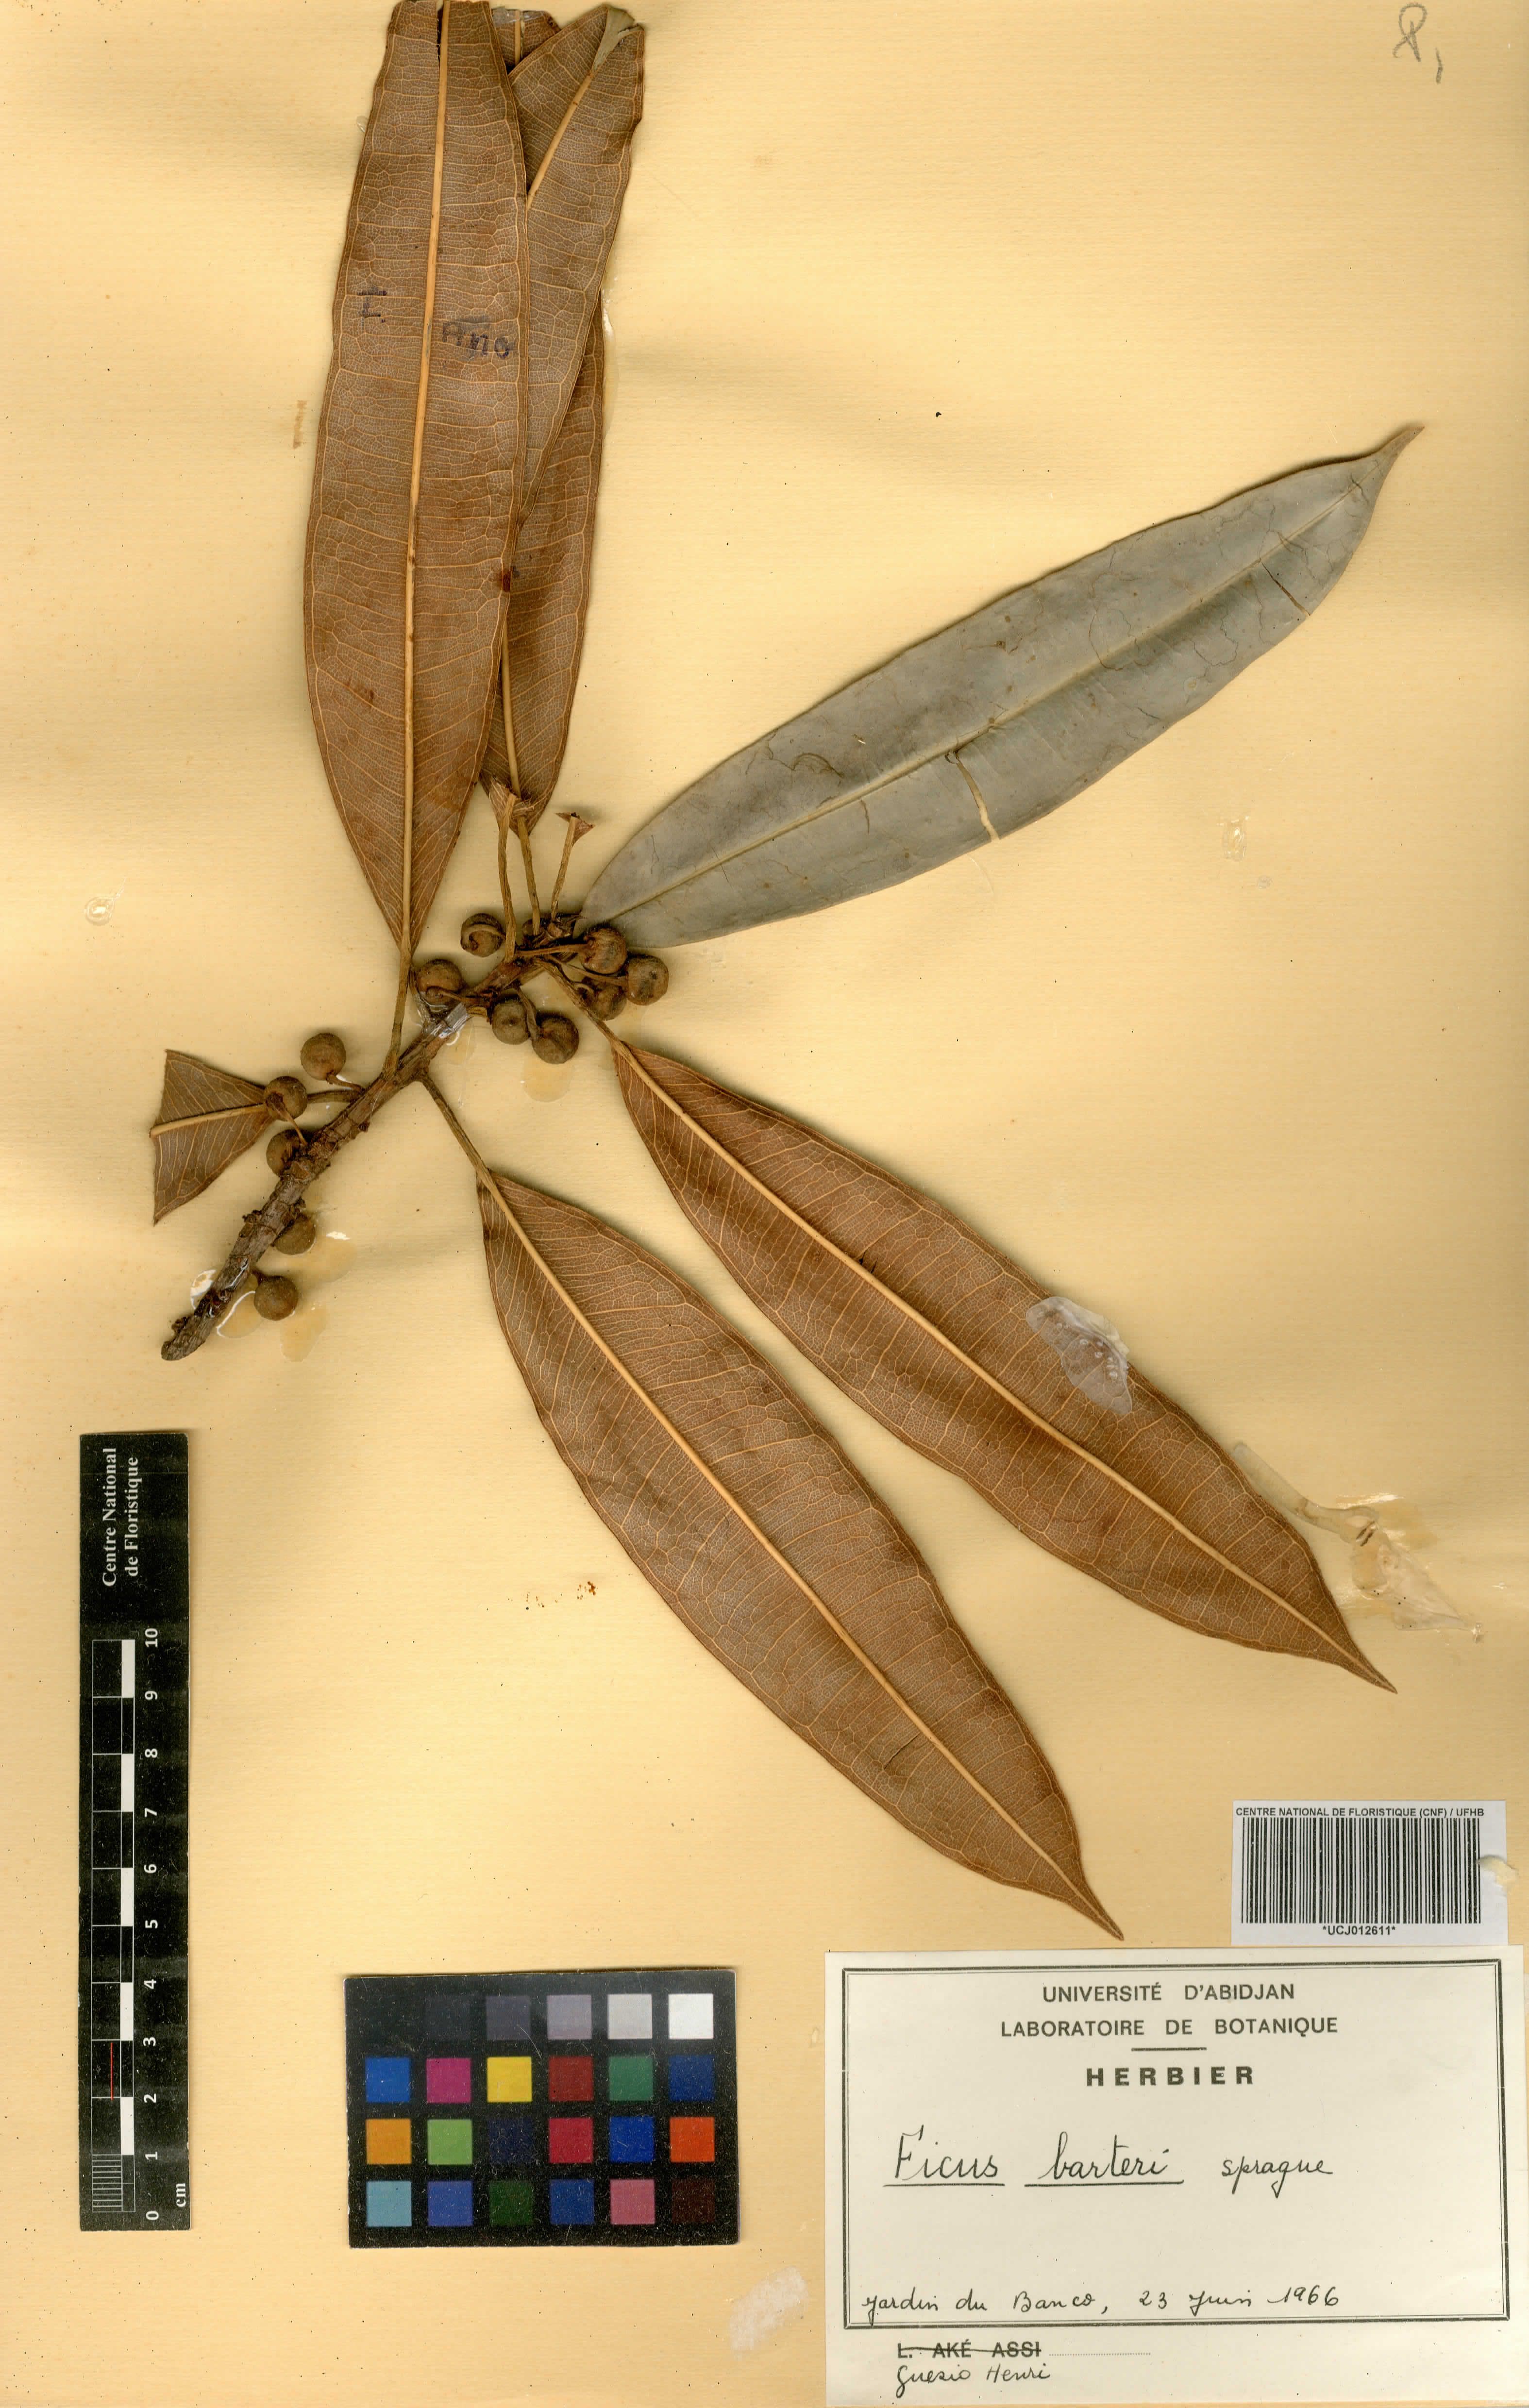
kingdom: Plantae
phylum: Tracheophyta
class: Magnoliopsida
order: Rosales
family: Moraceae
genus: Ficus
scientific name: Ficus barteri
